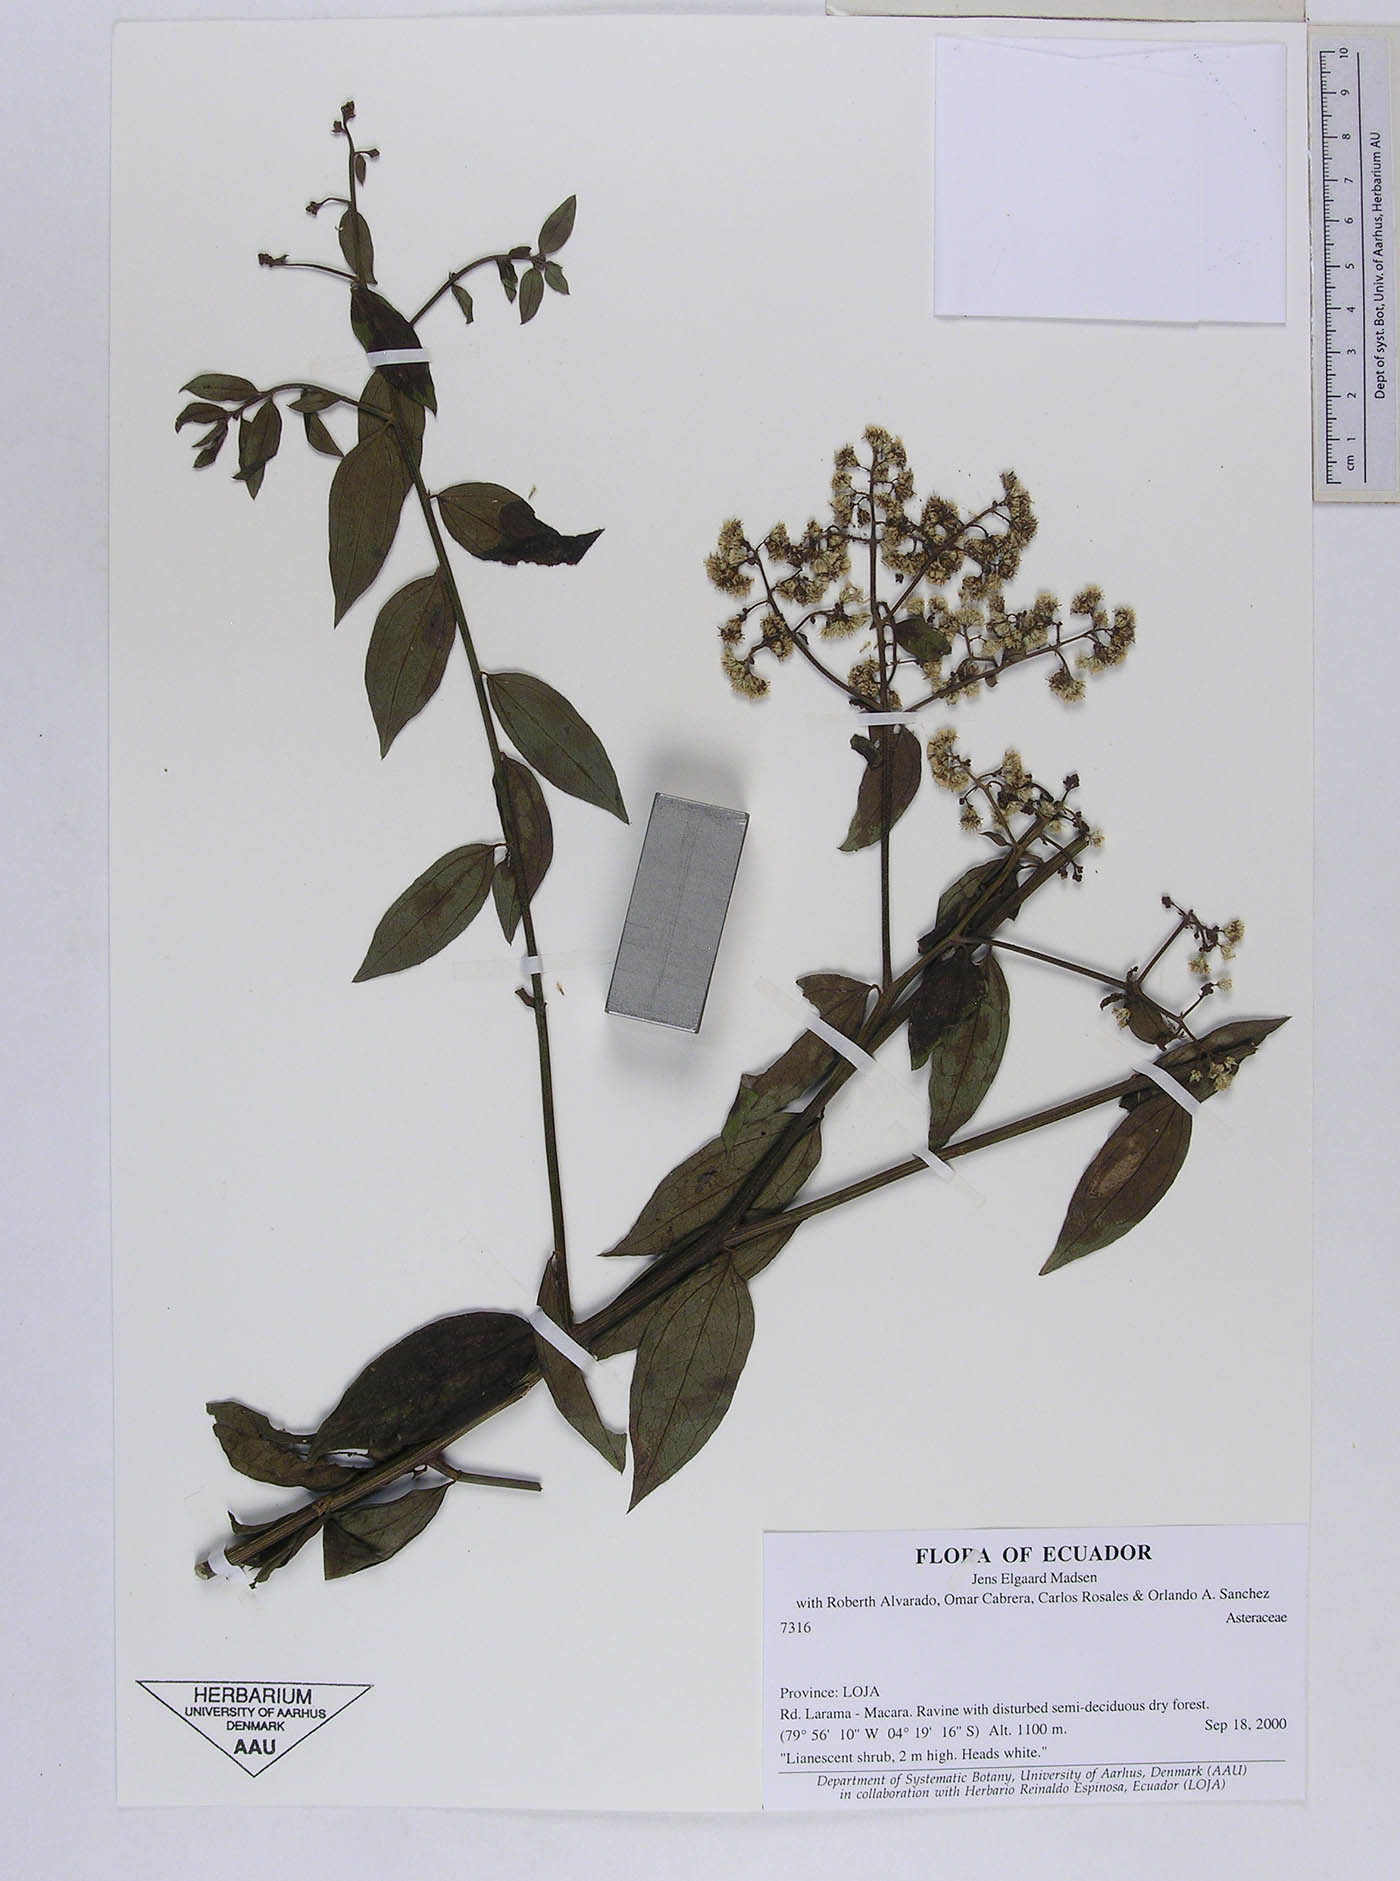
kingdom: Plantae
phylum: Tracheophyta
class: Magnoliopsida
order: Asterales
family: Asteraceae
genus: Baccharis
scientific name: Baccharis trinervis
